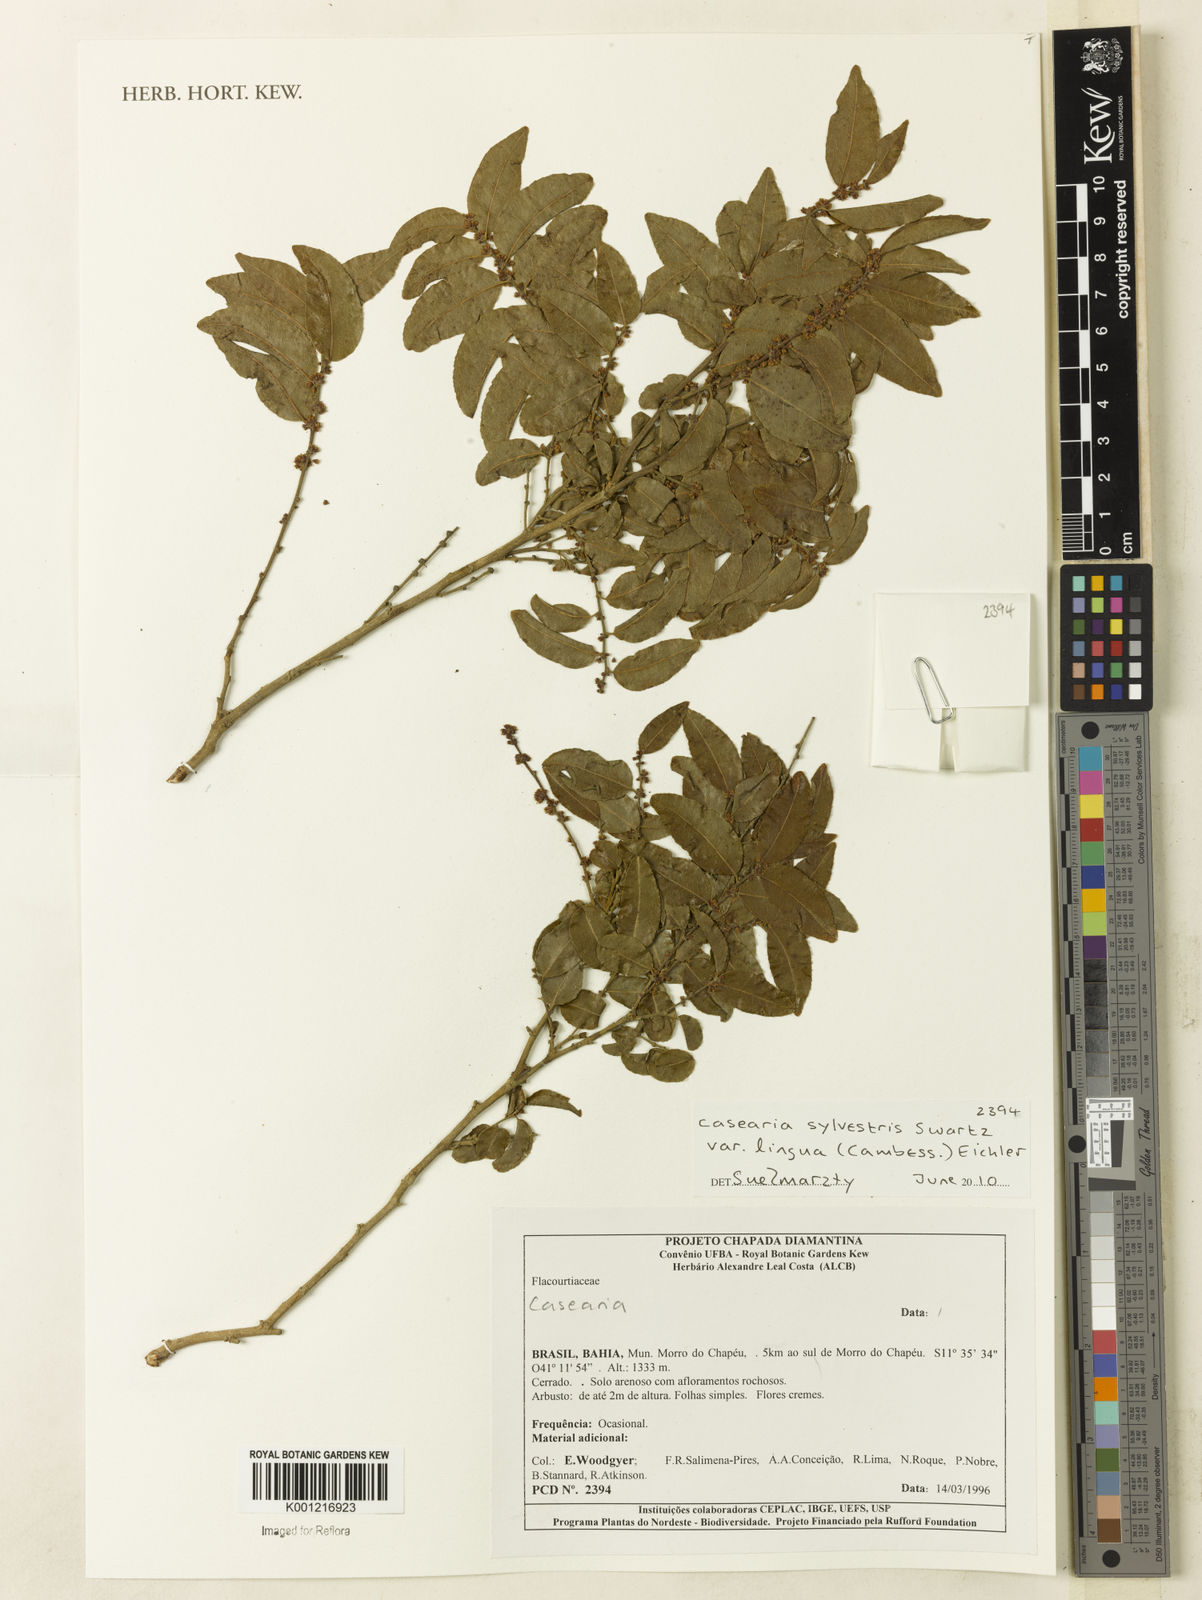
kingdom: Plantae
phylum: Tracheophyta
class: Magnoliopsida
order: Malpighiales
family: Salicaceae
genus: Casearia
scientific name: Casearia sylvestris
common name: Wild sage
